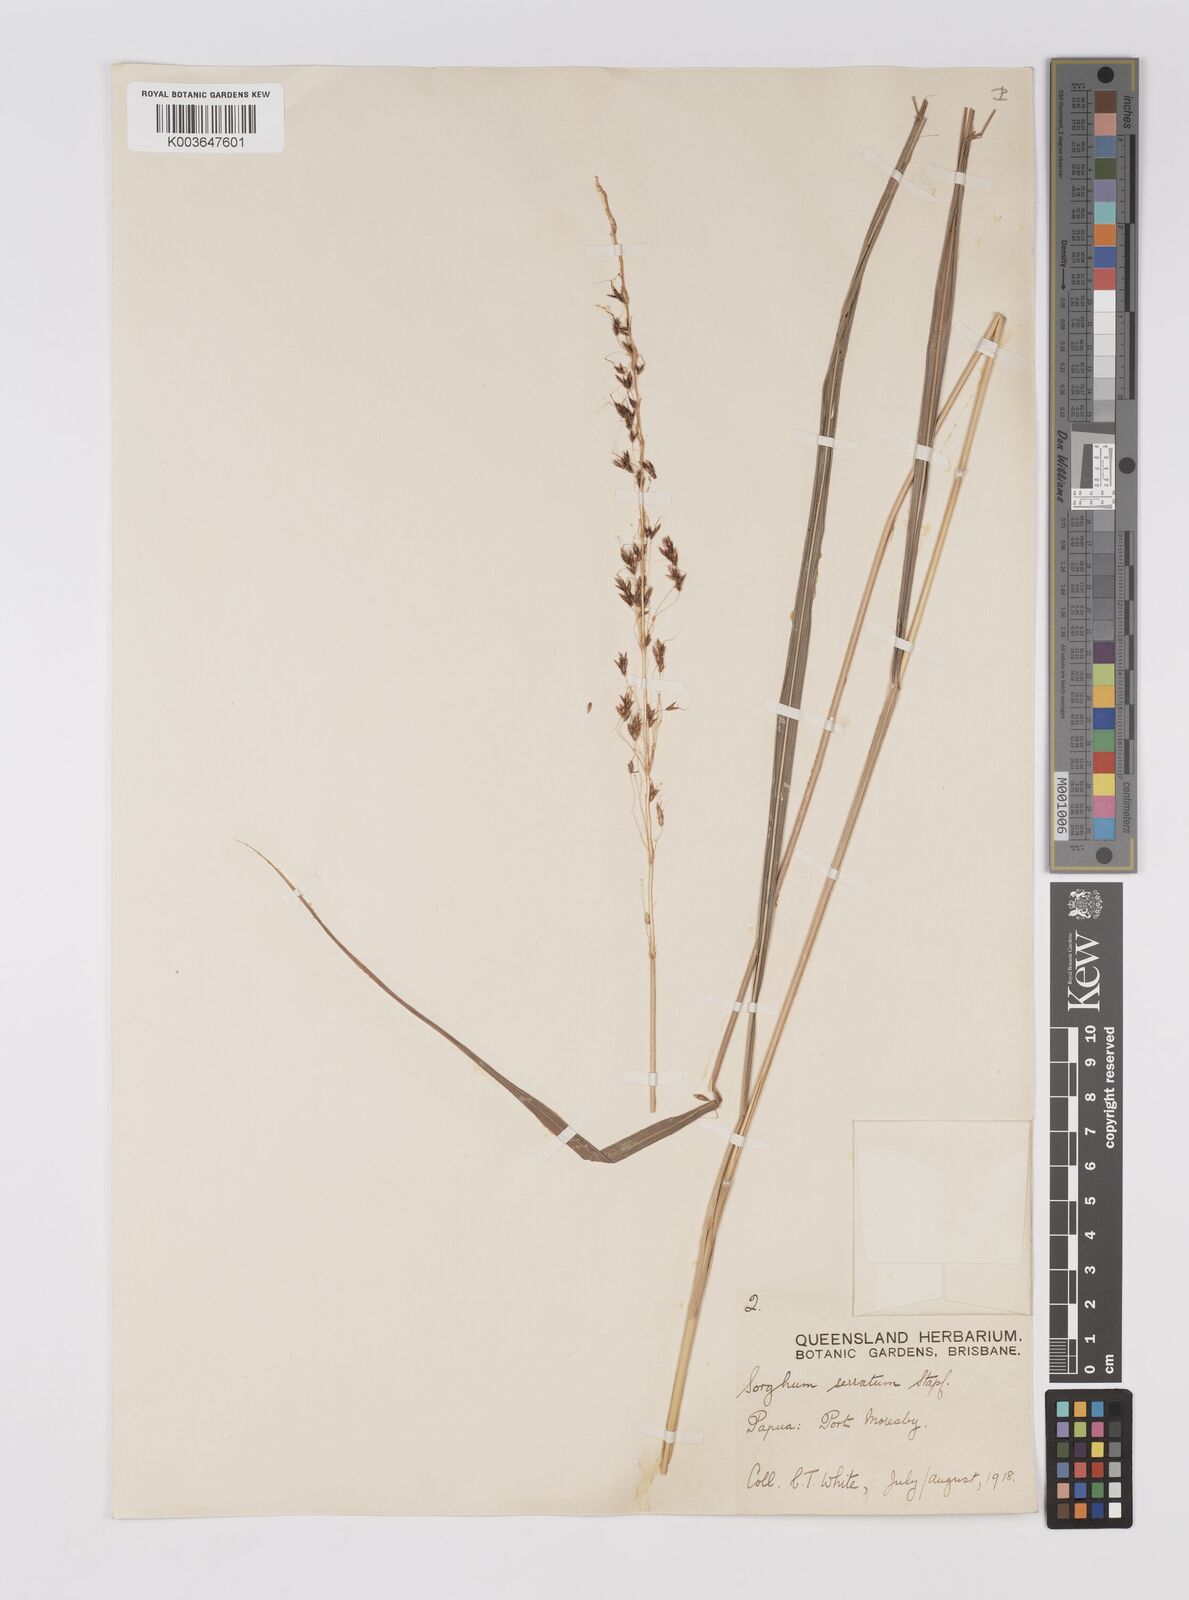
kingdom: Plantae
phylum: Tracheophyta
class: Liliopsida
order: Poales
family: Poaceae
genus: Sorghum
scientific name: Sorghum nitidum
